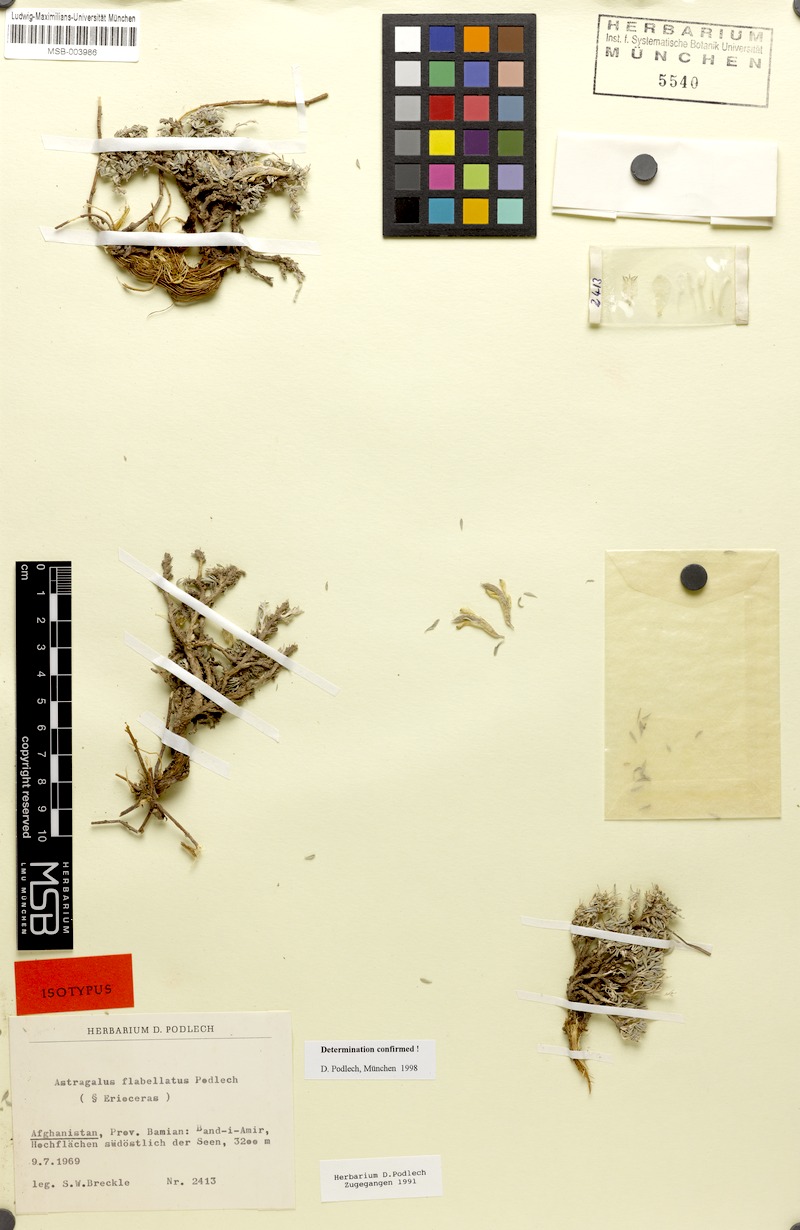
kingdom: Plantae
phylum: Tracheophyta
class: Magnoliopsida
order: Fabales
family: Fabaceae
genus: Astragalus
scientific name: Astragalus flabellatus
